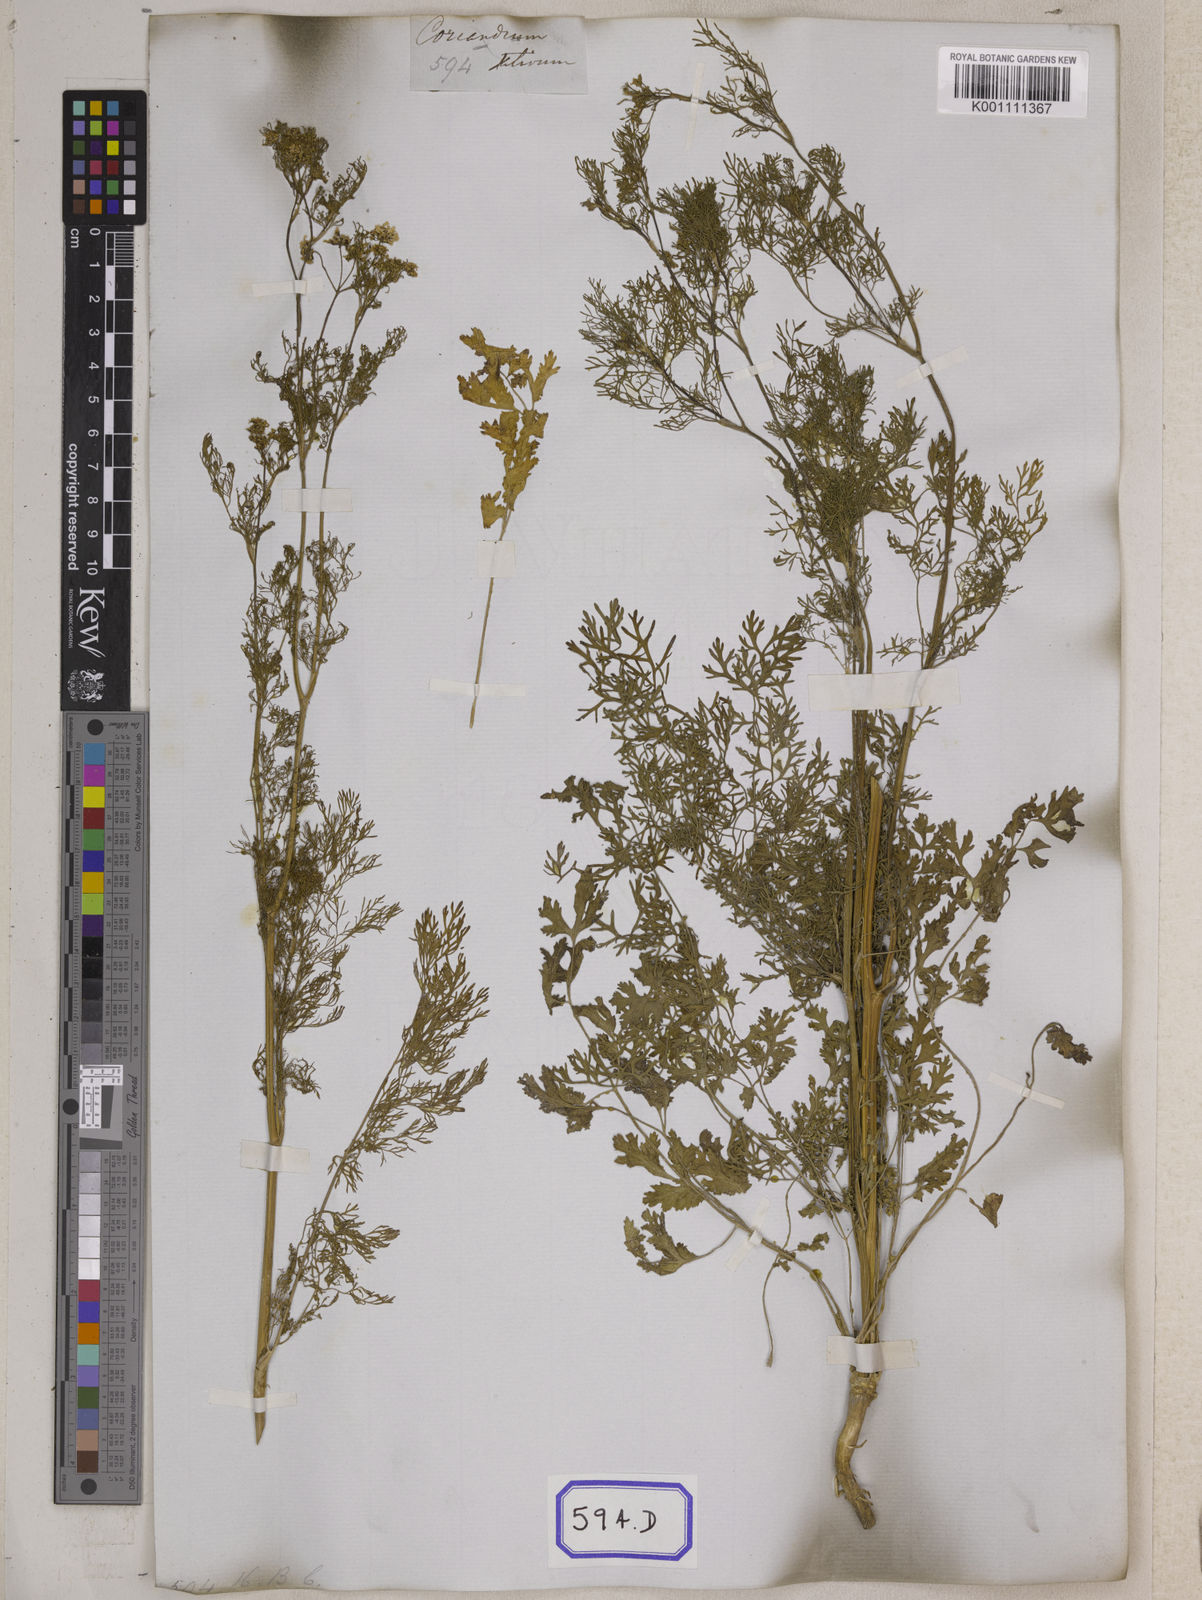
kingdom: Plantae
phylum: Tracheophyta
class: Magnoliopsida
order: Apiales
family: Apiaceae
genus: Cuminum
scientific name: Cuminum cyminum
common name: Cumin
